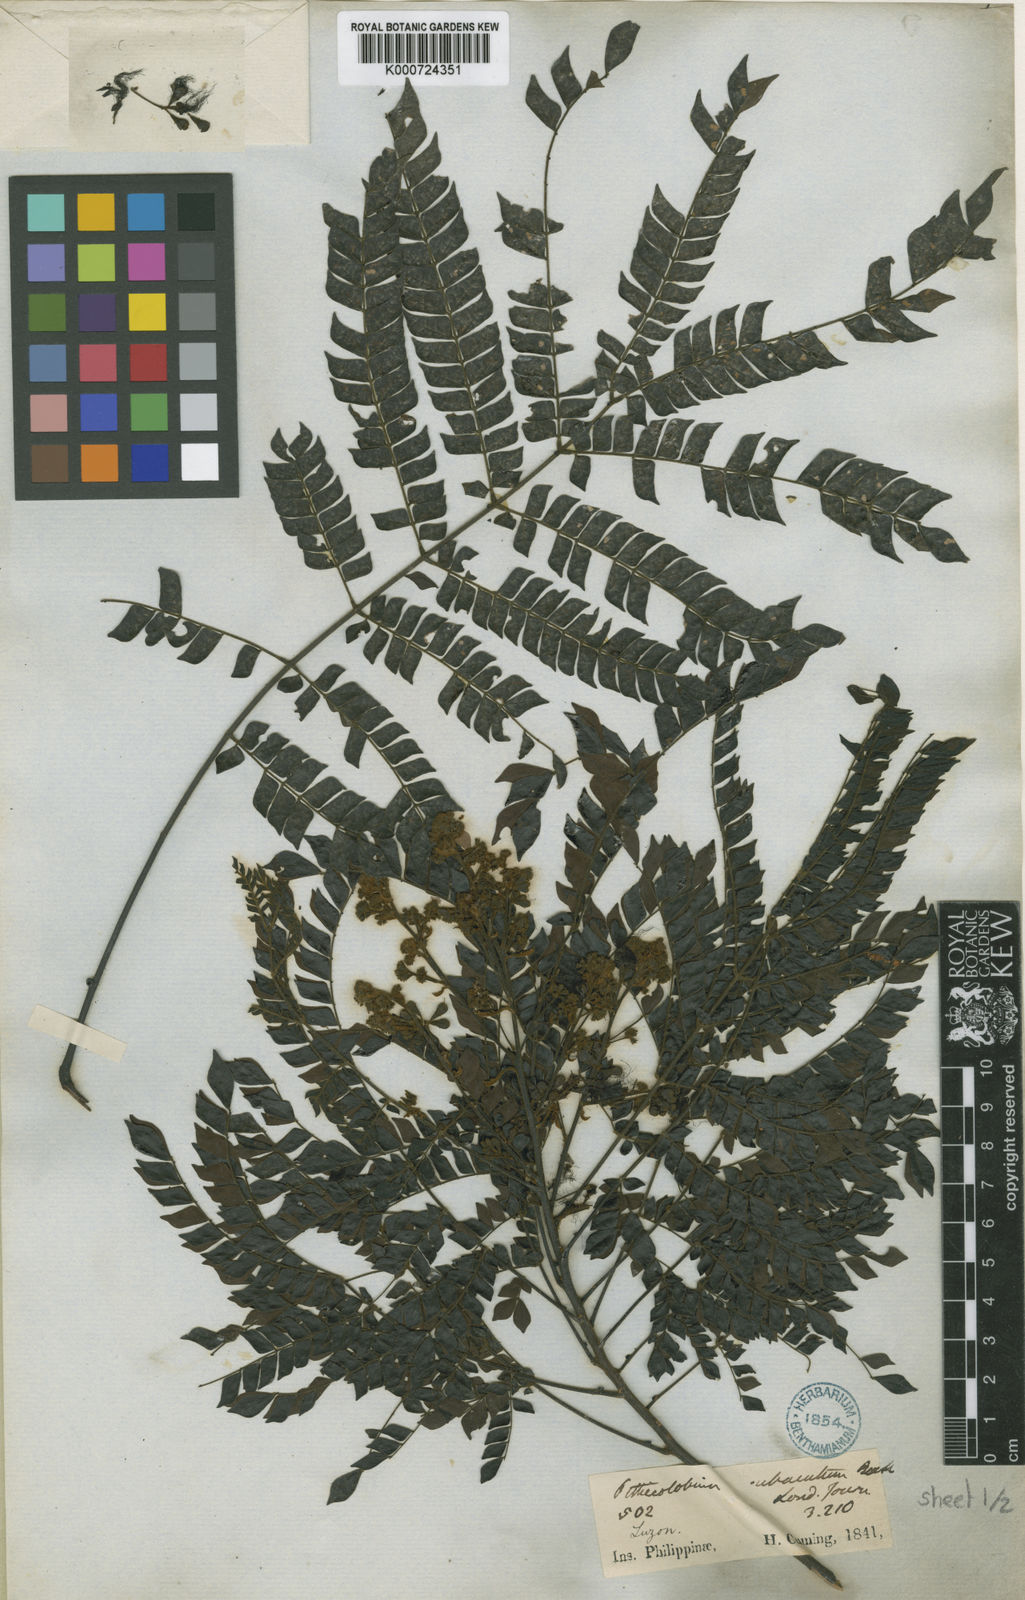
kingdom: Plantae
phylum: Tracheophyta
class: Magnoliopsida
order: Fabales
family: Fabaceae
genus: Archidendron
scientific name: Archidendron clypearia
